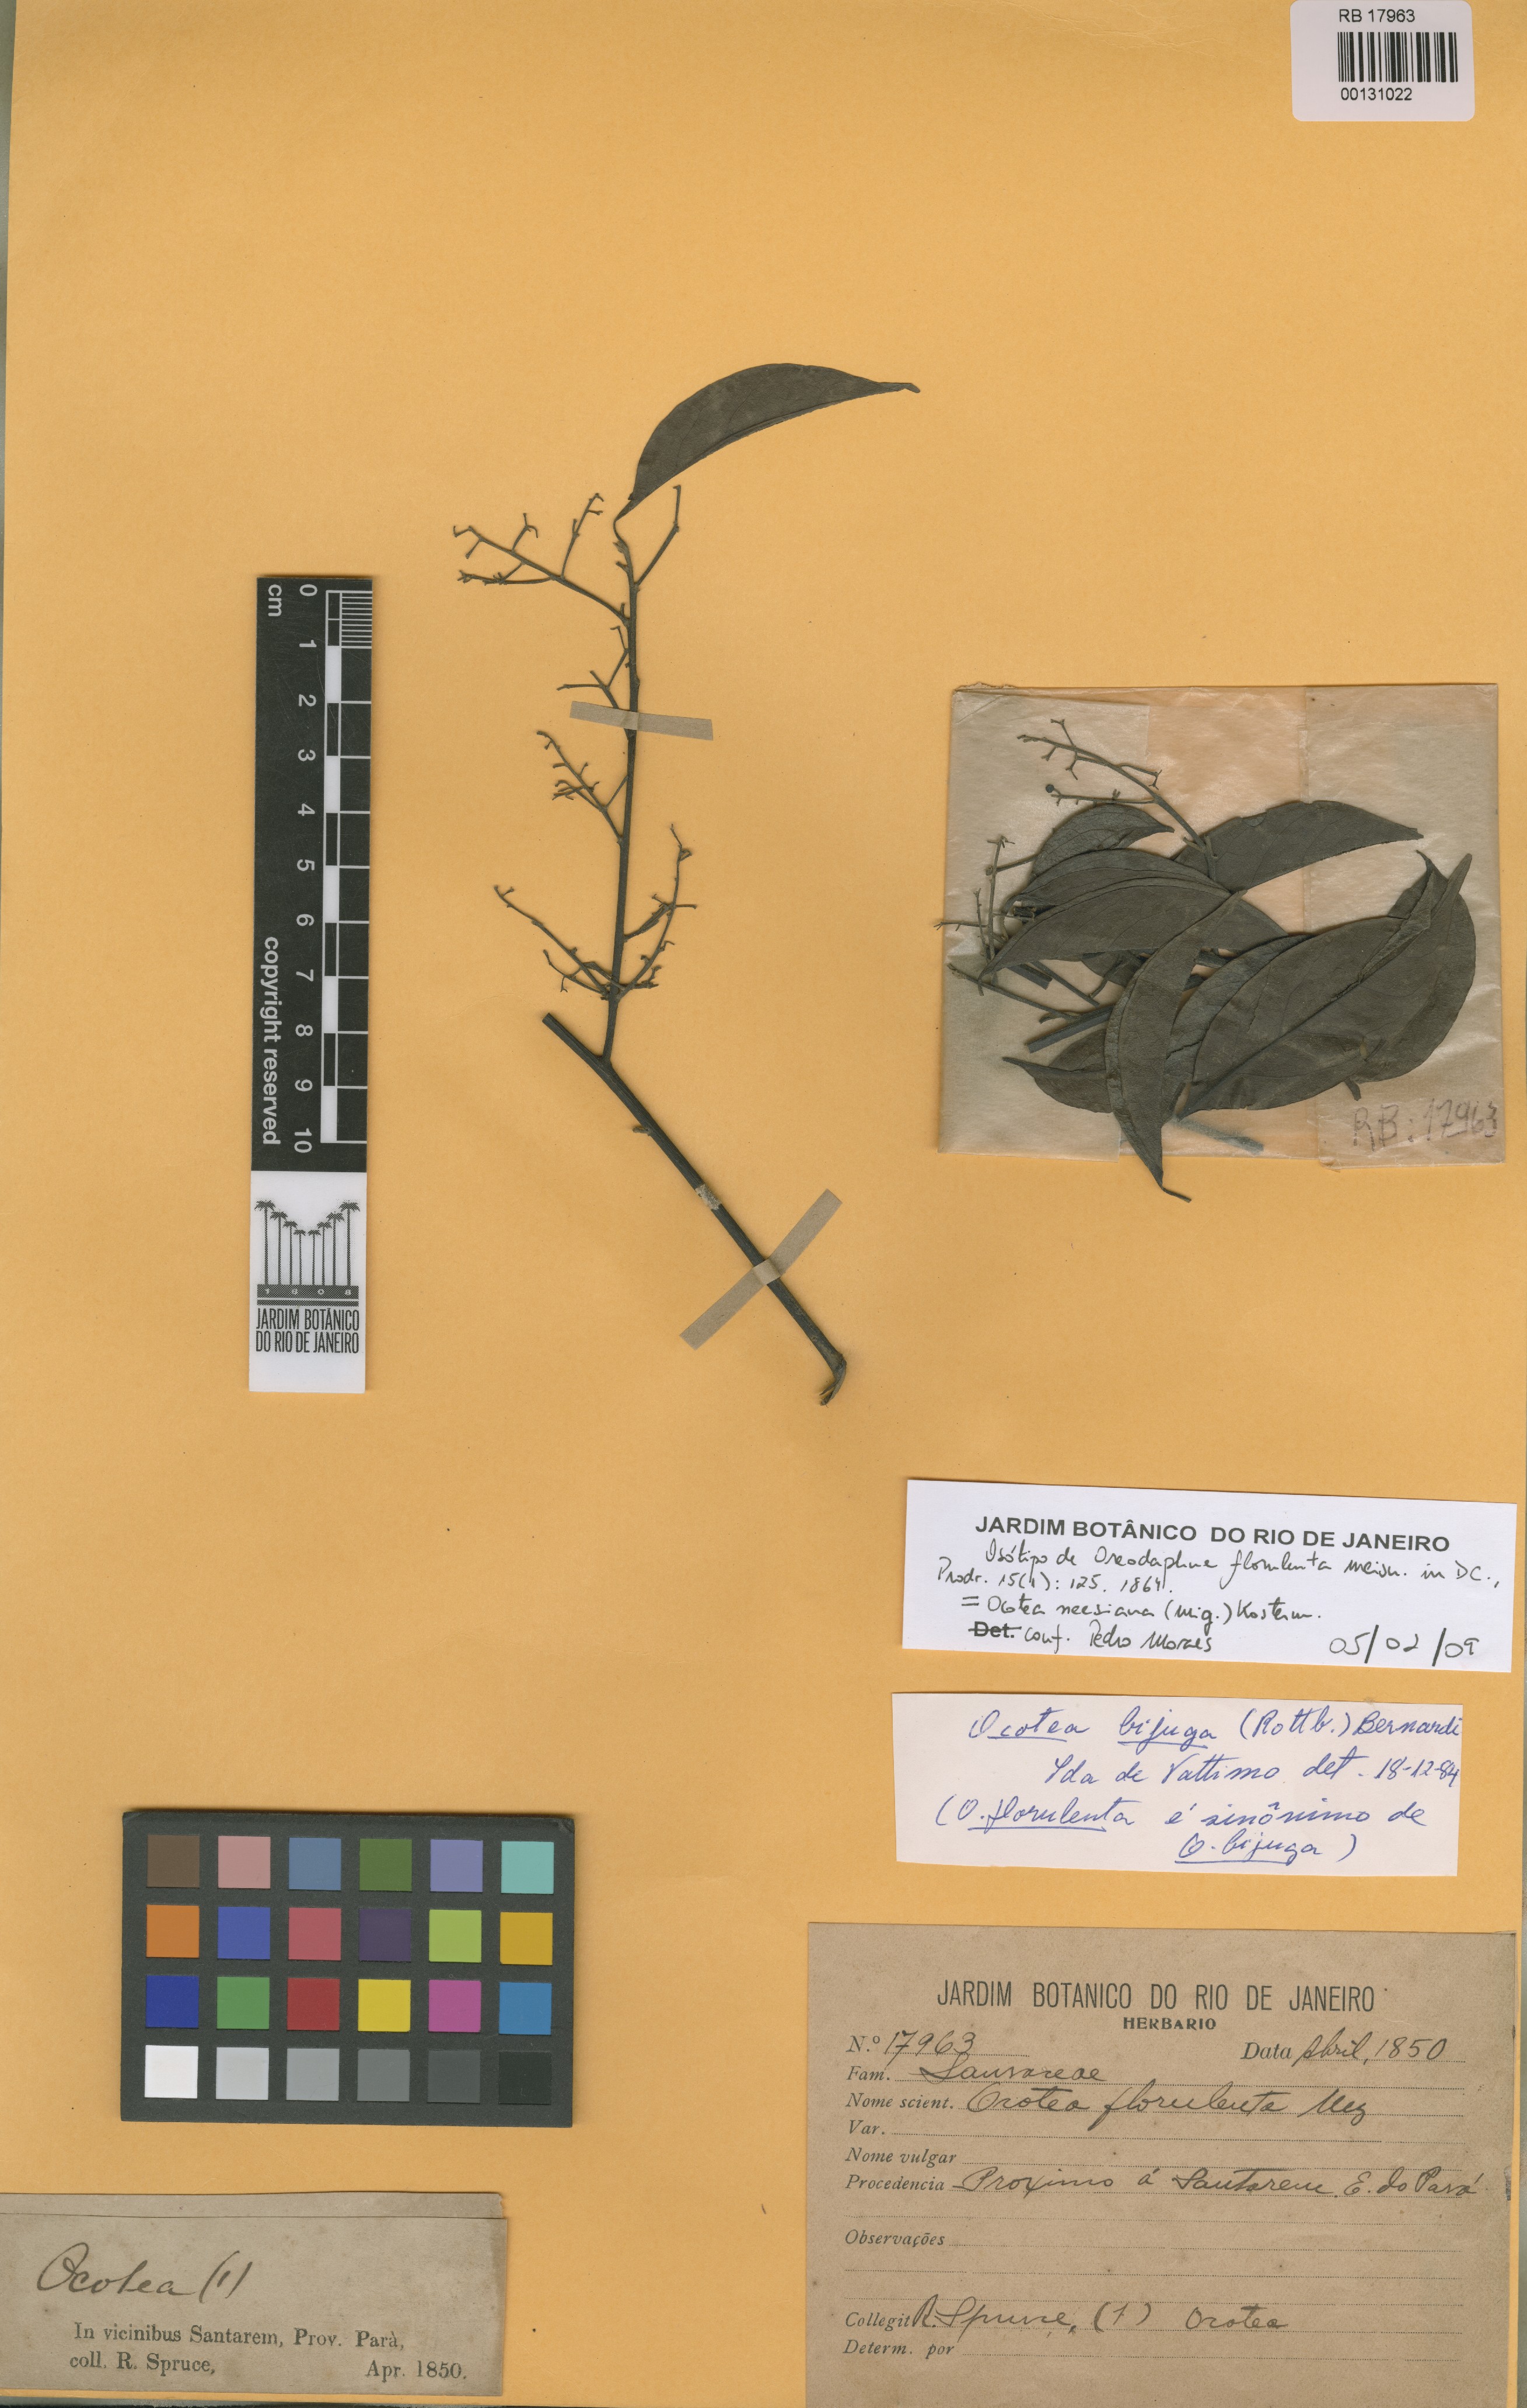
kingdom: Plantae
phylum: Tracheophyta
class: Magnoliopsida
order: Laurales
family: Lauraceae
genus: Ocotea
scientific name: Ocotea neesiana
